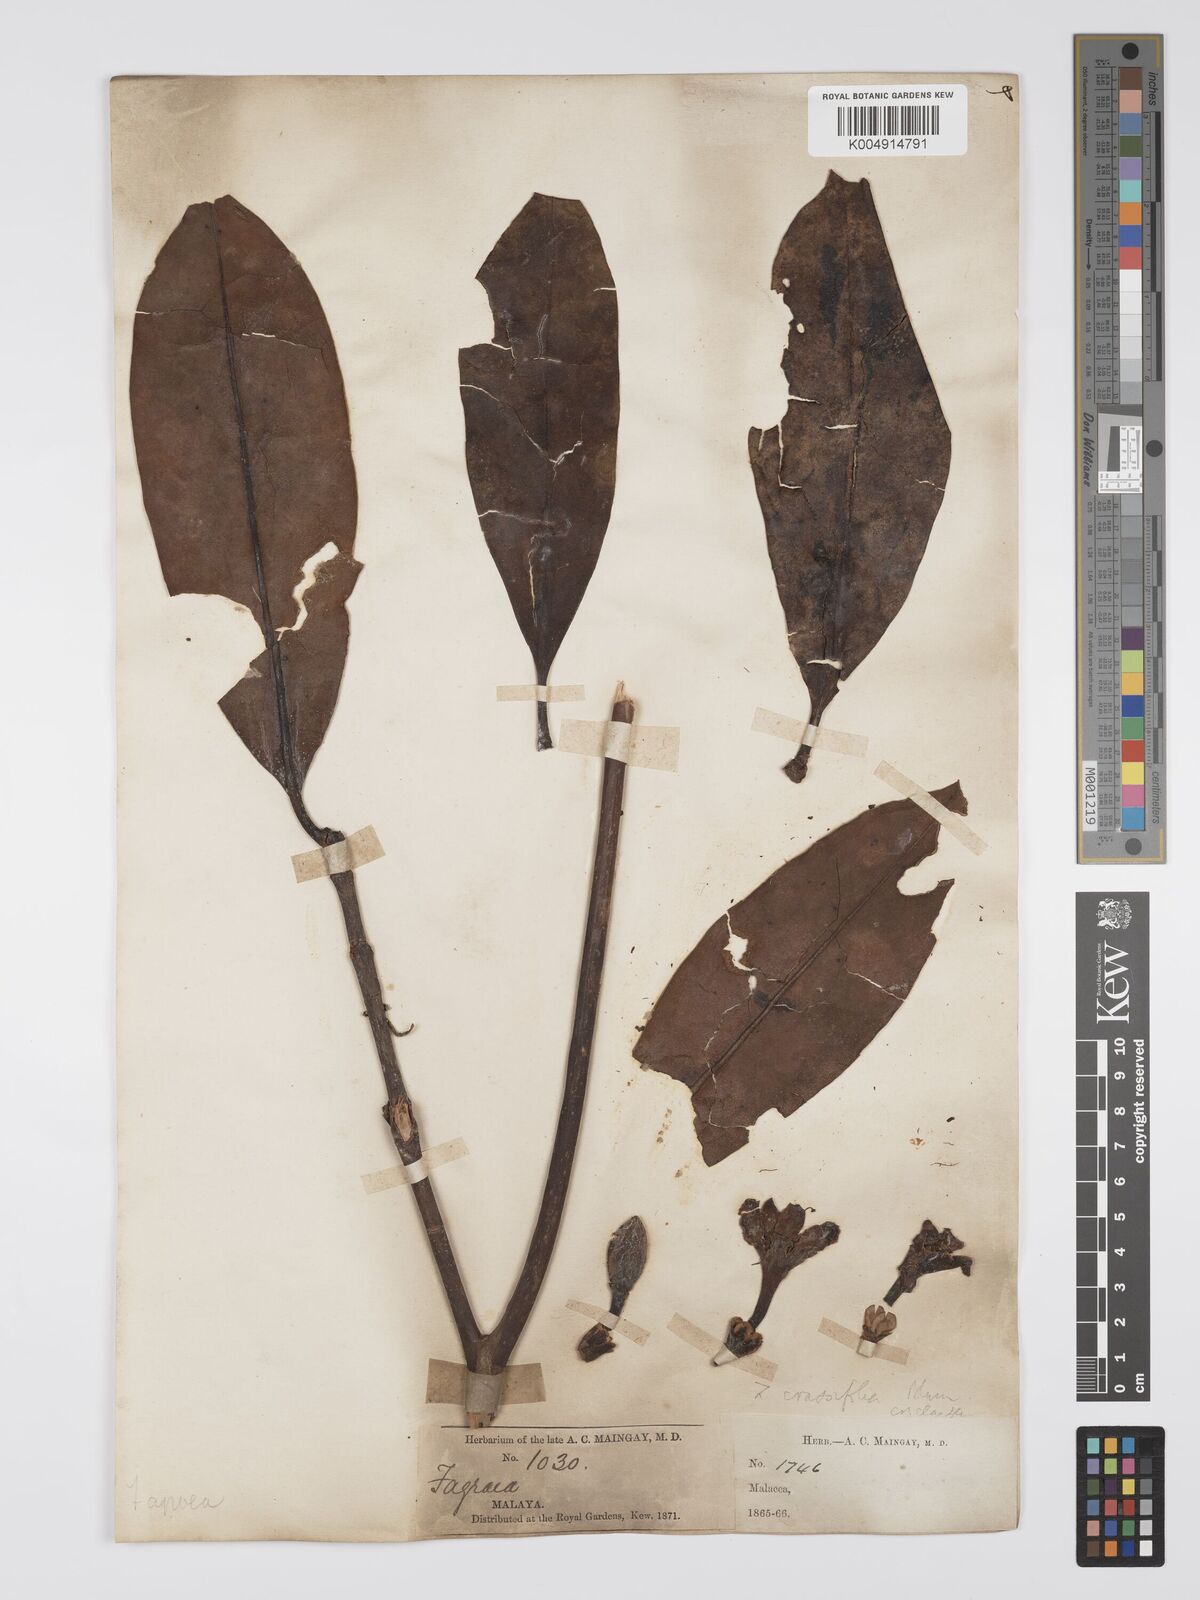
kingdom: Plantae
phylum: Tracheophyta
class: Magnoliopsida
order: Gentianales
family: Gentianaceae
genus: Fagraea
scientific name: Fagraea oblonga
